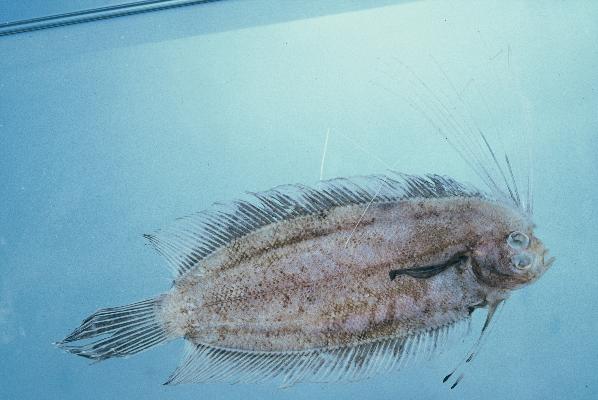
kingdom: Animalia
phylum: Chordata
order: Pleuronectiformes
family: Samaridae
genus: Samaris
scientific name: Samaris cristatus
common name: Cockatoo righteye flounder
